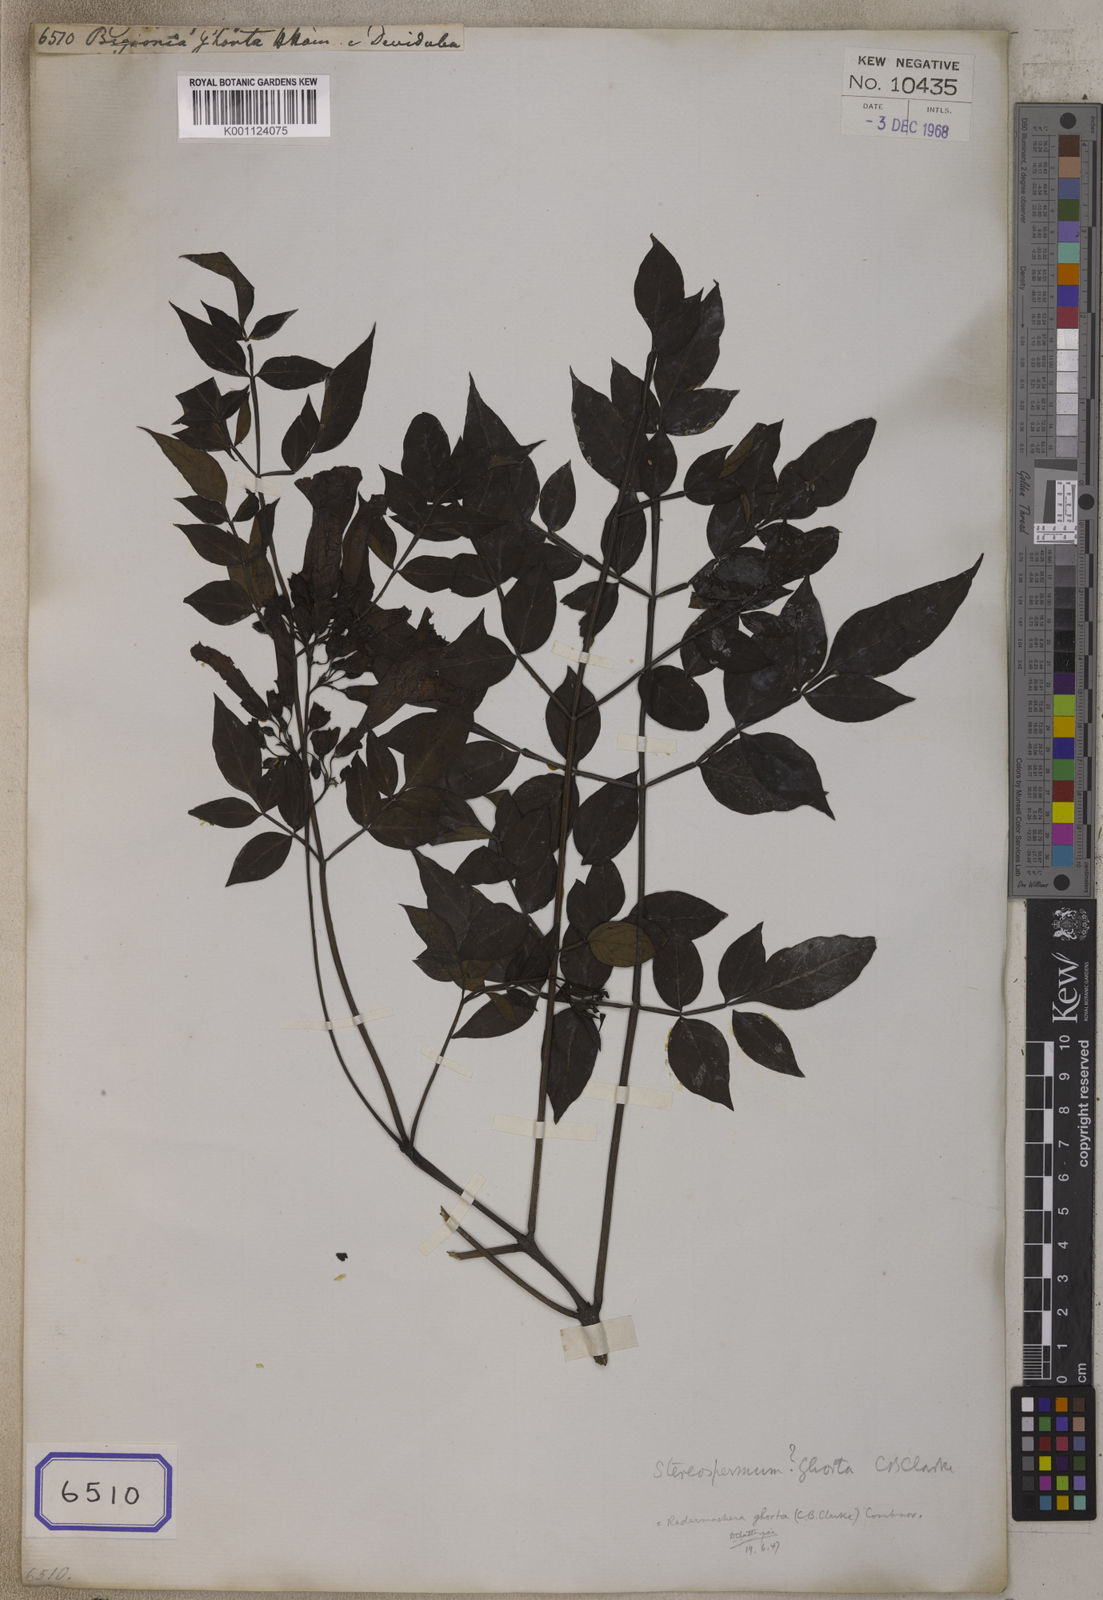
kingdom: Plantae
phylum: Tracheophyta
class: Magnoliopsida
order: Lamiales
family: Bignoniaceae
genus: Bignonia
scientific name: Bignonia
